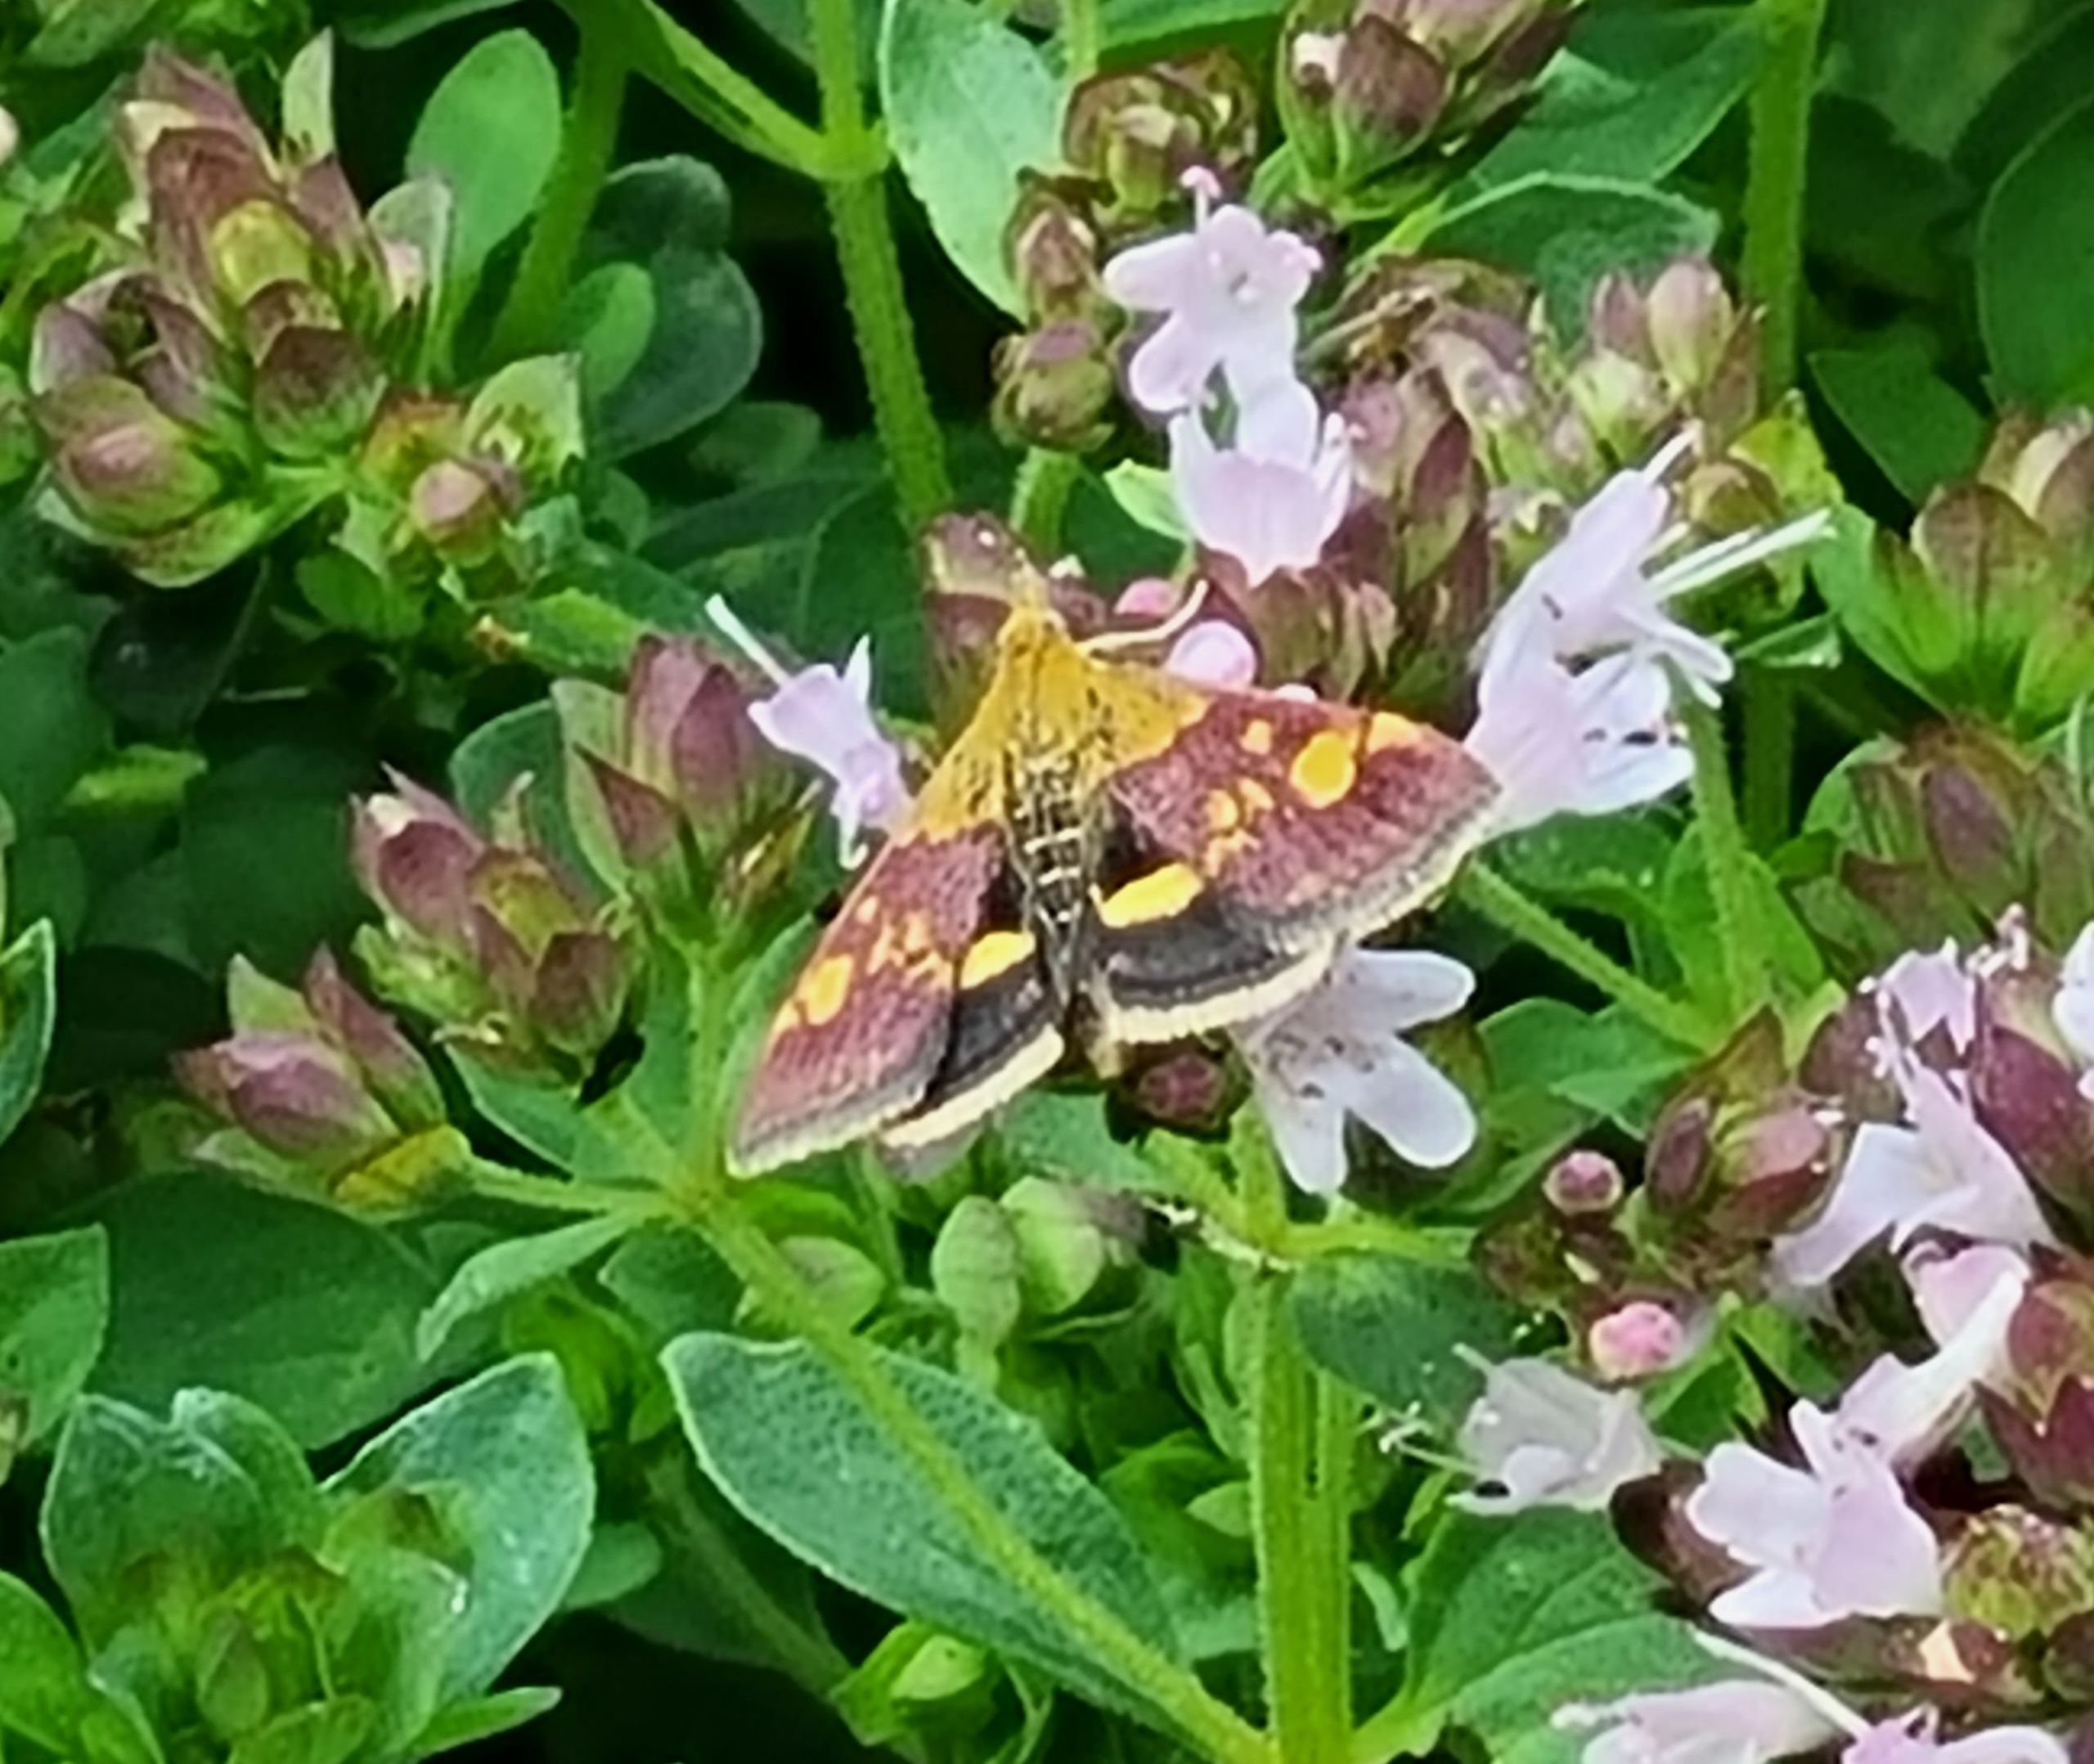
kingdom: Animalia
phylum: Arthropoda
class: Insecta
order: Lepidoptera
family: Crambidae
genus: Pyrausta
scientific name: Pyrausta aurata
